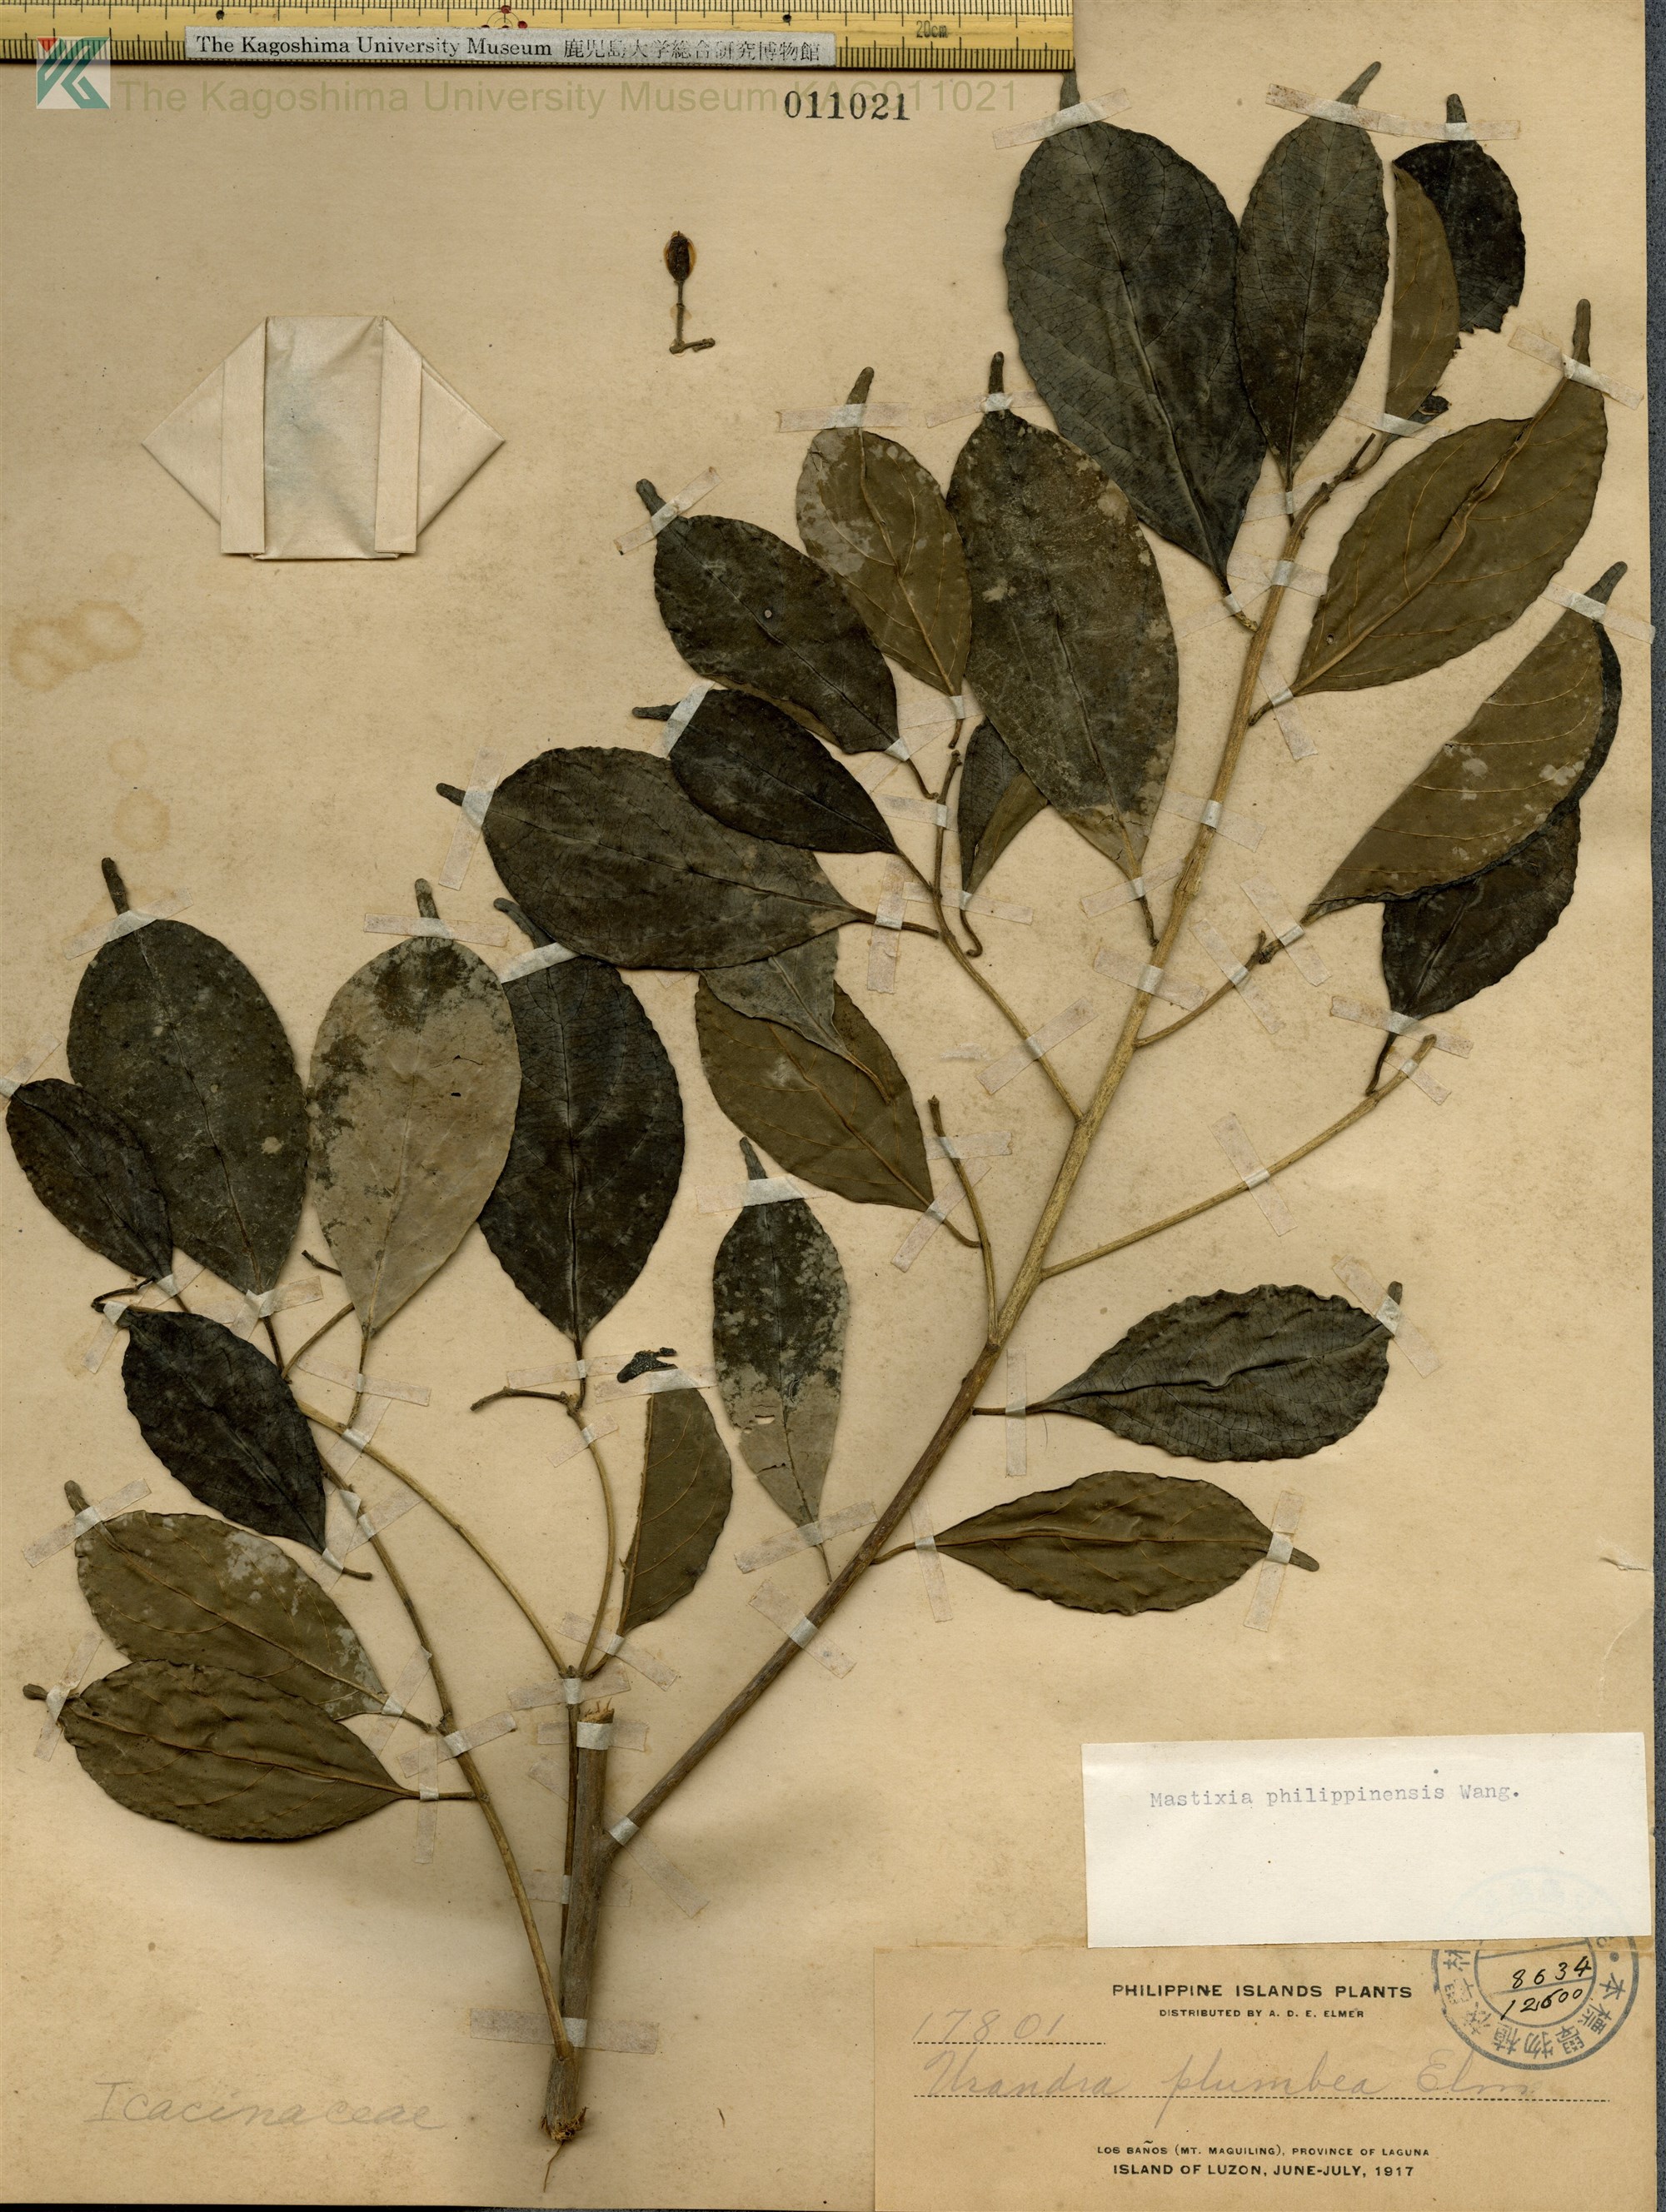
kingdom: Plantae
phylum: Tracheophyta
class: Magnoliopsida
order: Cornales
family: Nyssaceae
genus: Mastixia
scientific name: Mastixia pentandra
